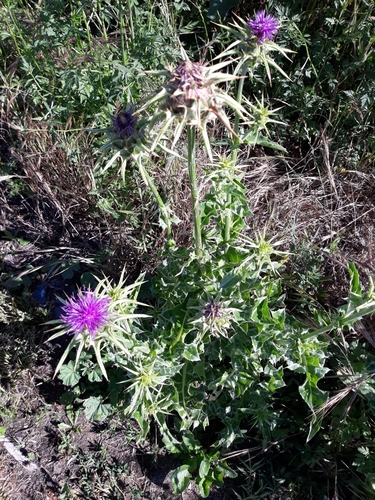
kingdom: Plantae
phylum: Tracheophyta
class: Magnoliopsida
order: Asterales
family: Asteraceae
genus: Silybum
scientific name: Silybum marianum
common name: Milk thistle
